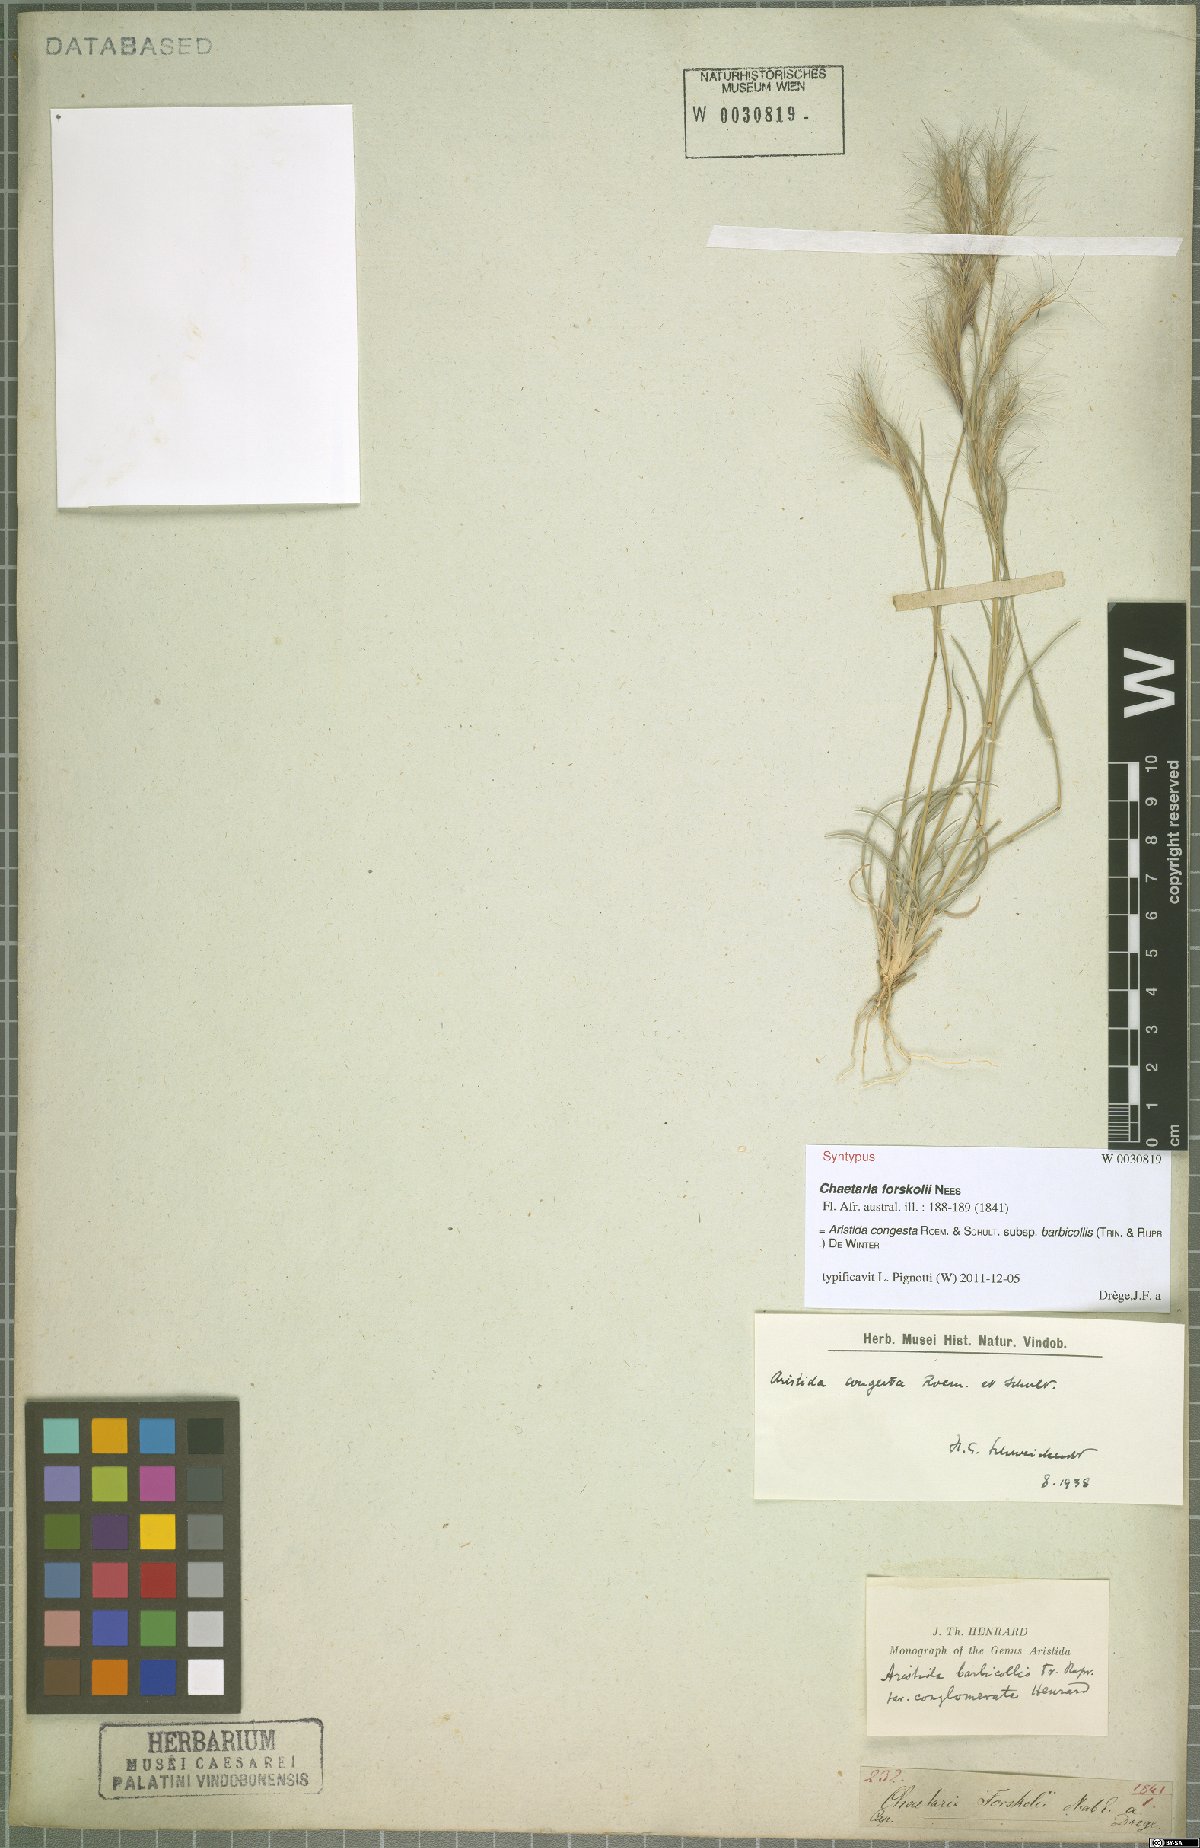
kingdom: Plantae
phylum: Tracheophyta
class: Liliopsida
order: Poales
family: Poaceae
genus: Aristida
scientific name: Aristida barbicollis
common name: Spreading prickle grass
